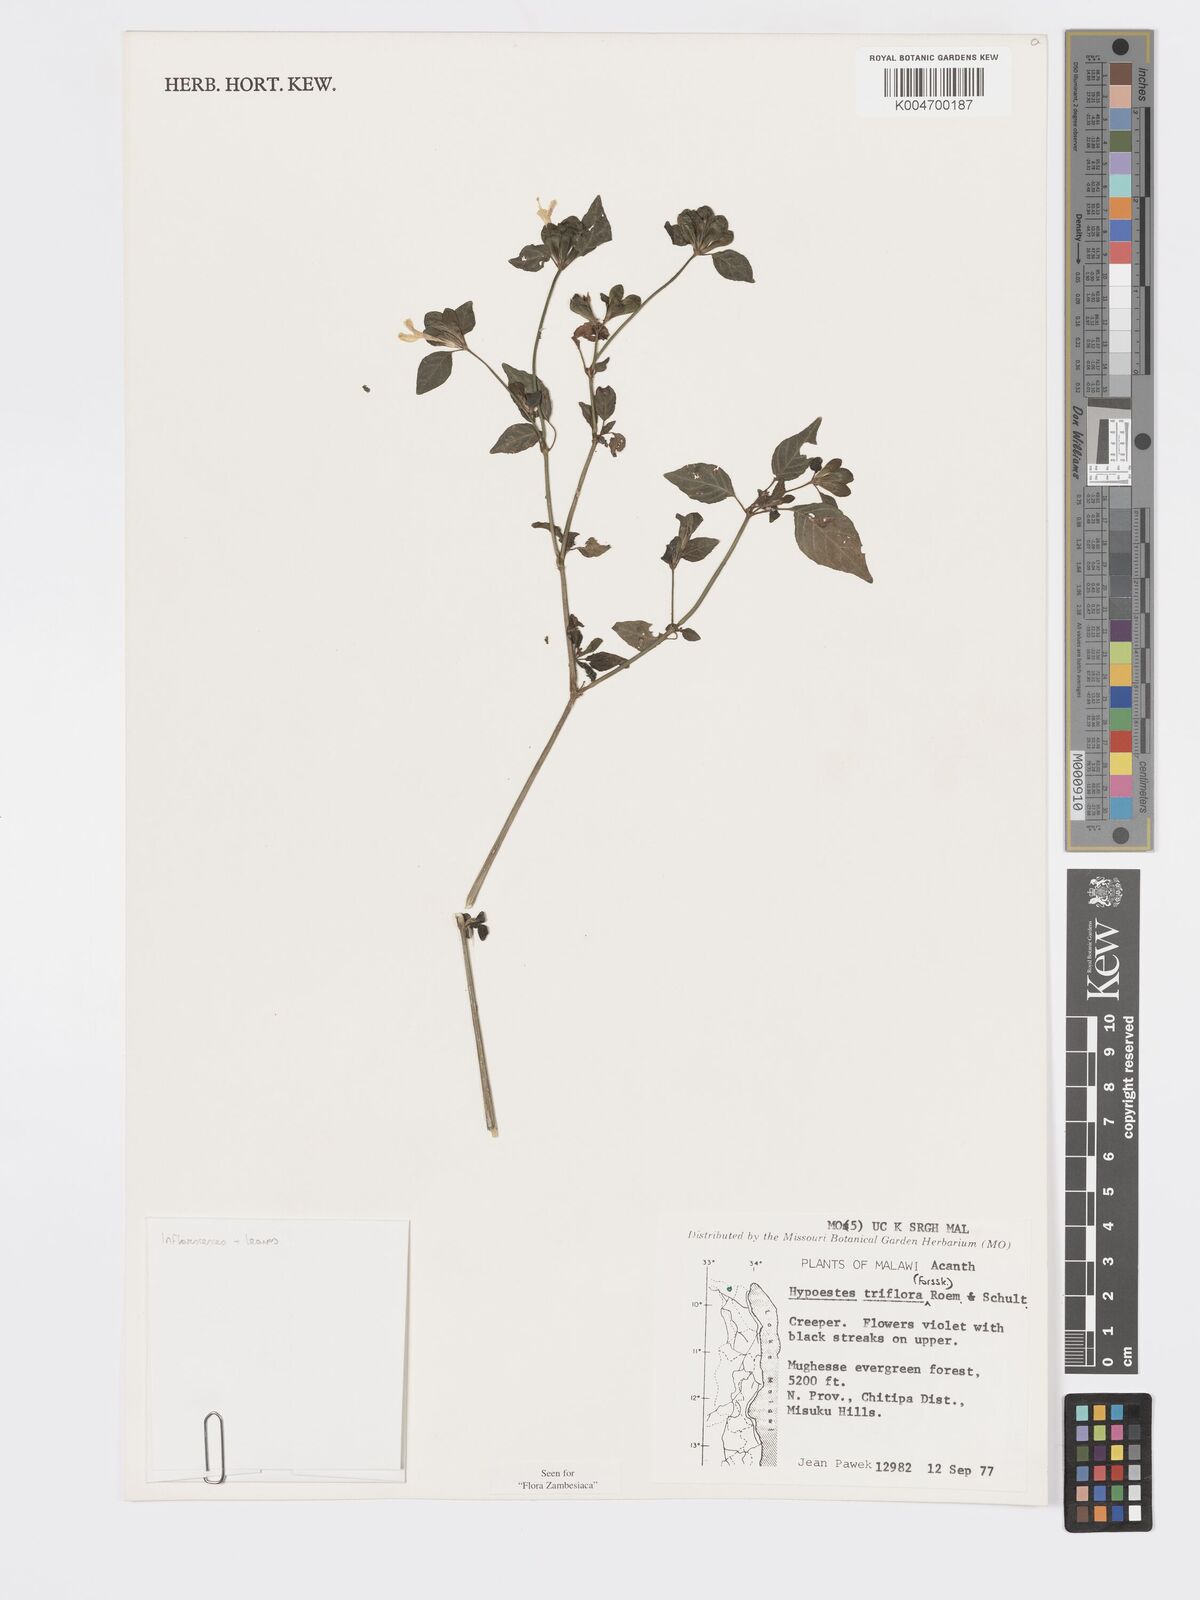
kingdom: Plantae
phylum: Tracheophyta
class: Magnoliopsida
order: Lamiales
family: Acanthaceae
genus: Hypoestes
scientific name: Hypoestes triflora
